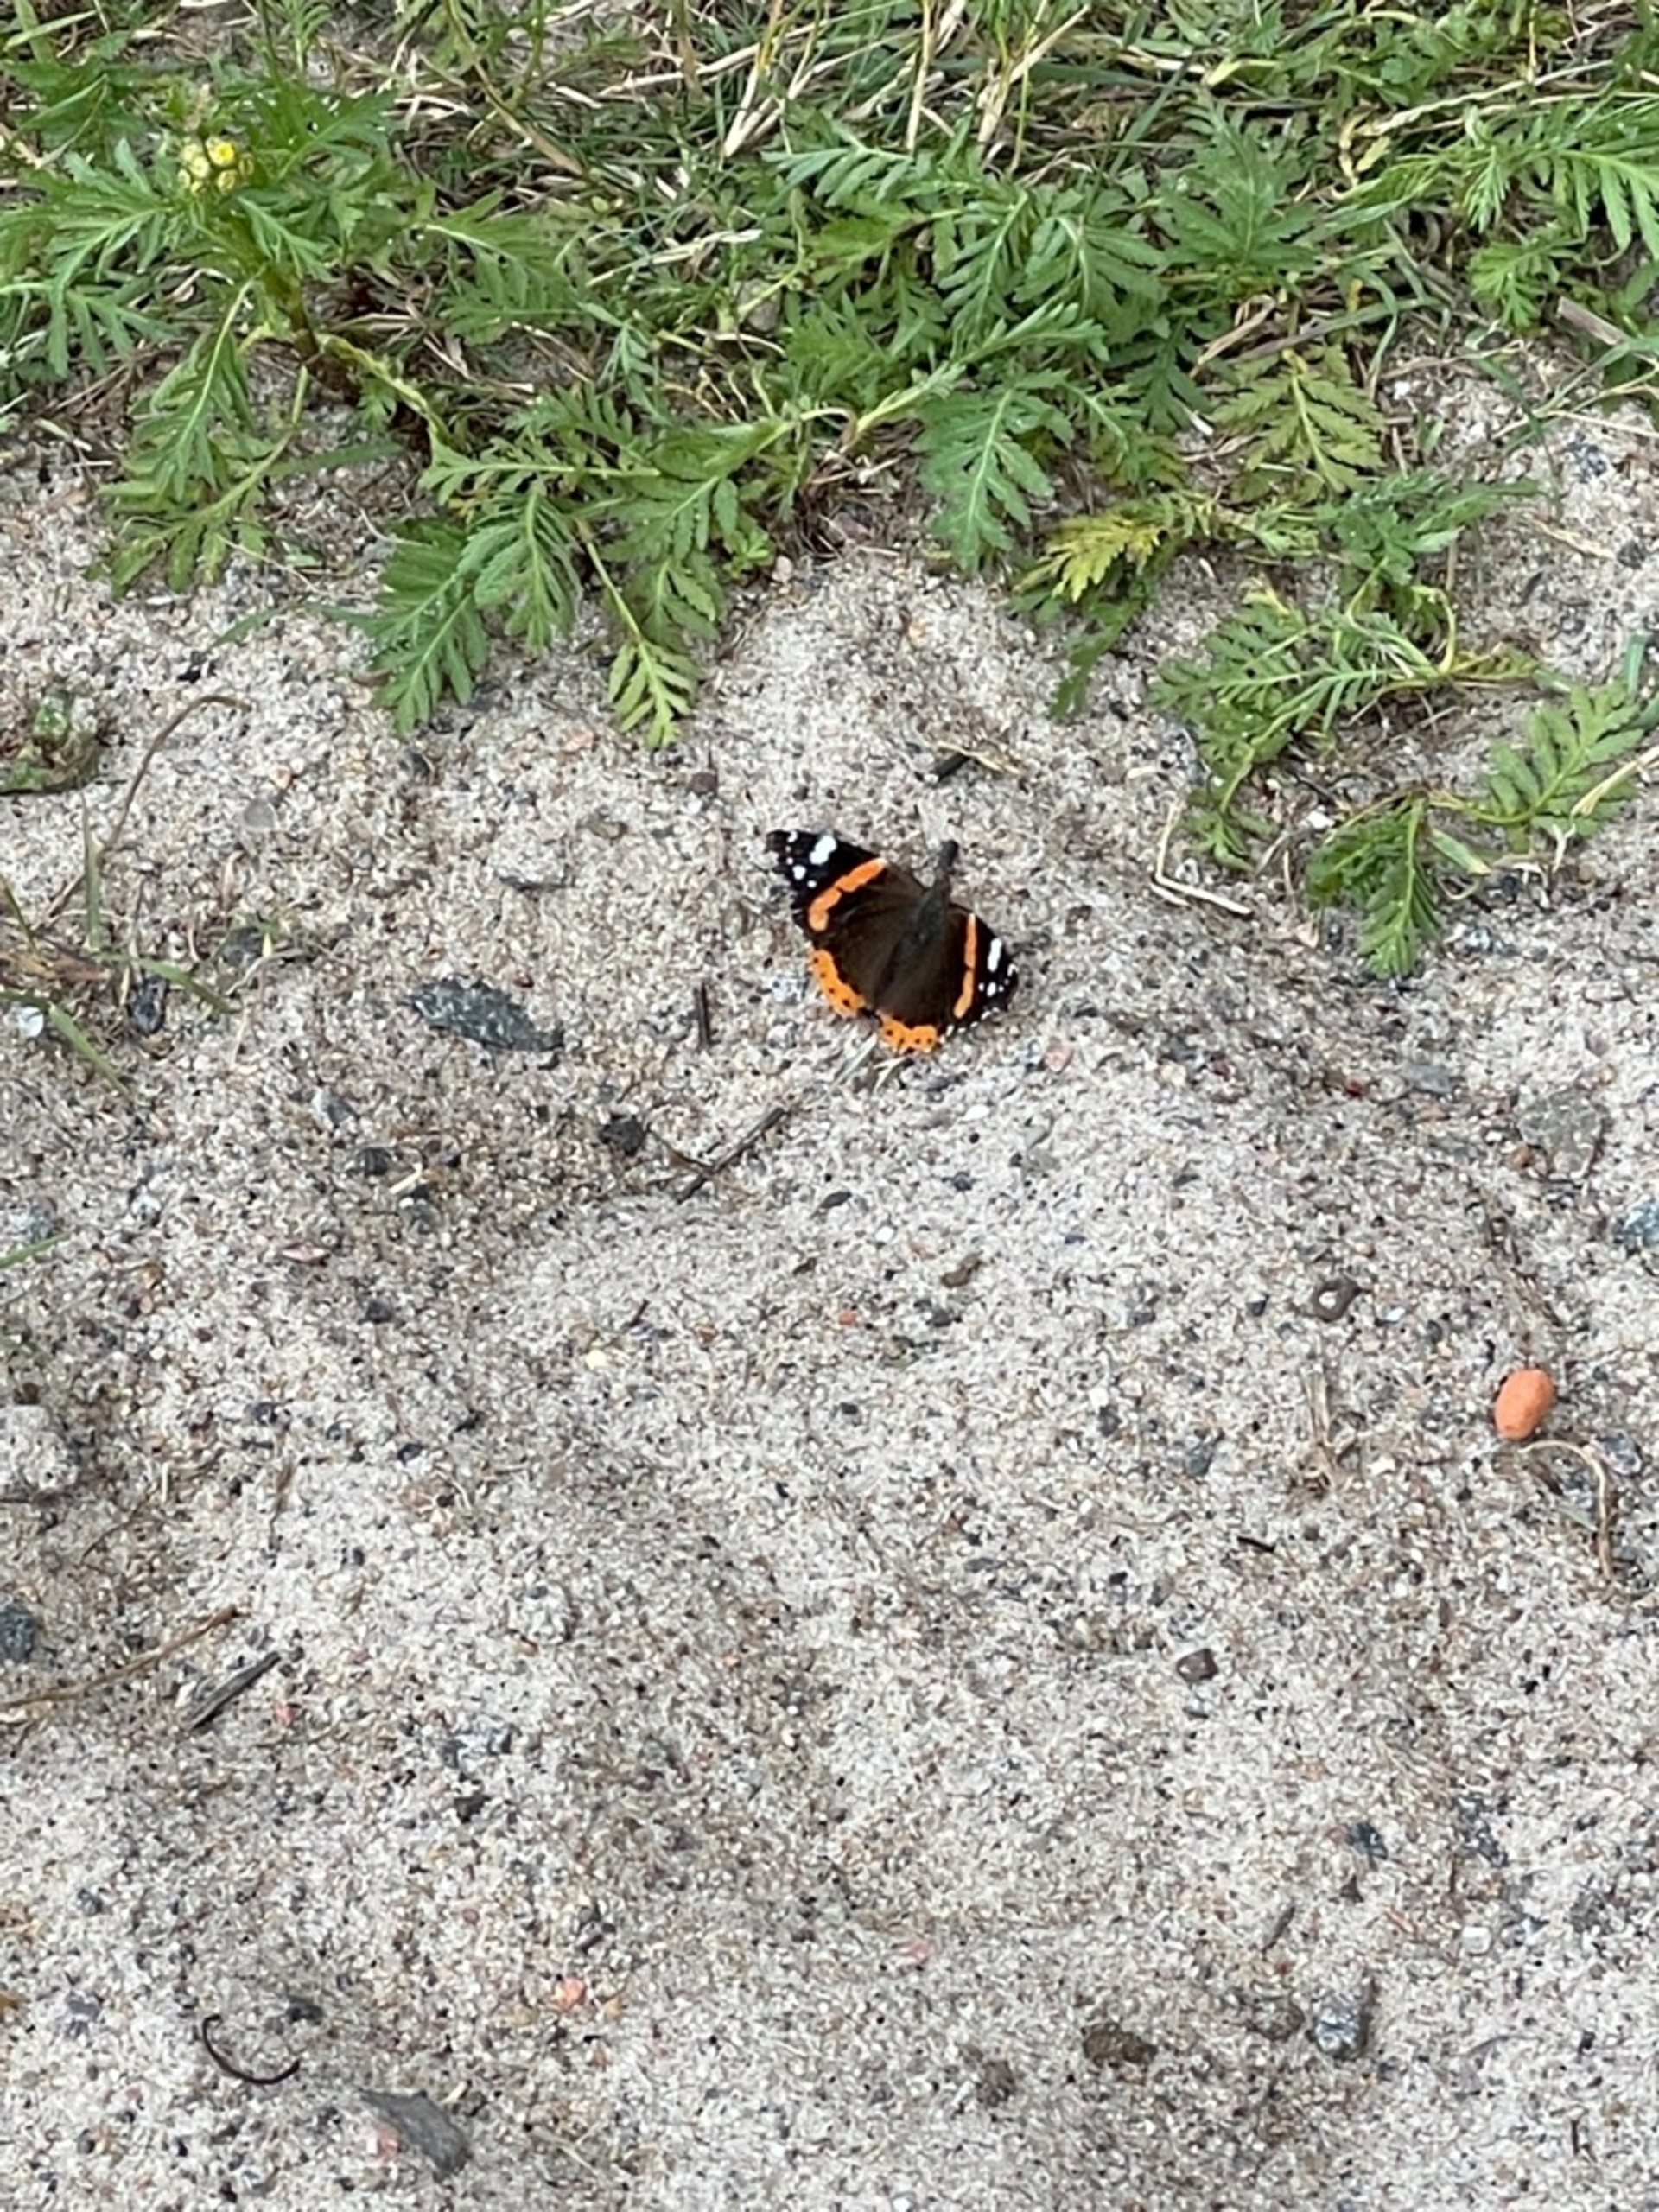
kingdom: Animalia
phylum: Arthropoda
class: Insecta
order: Lepidoptera
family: Nymphalidae
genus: Vanessa
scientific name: Vanessa atalanta
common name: Admiral
